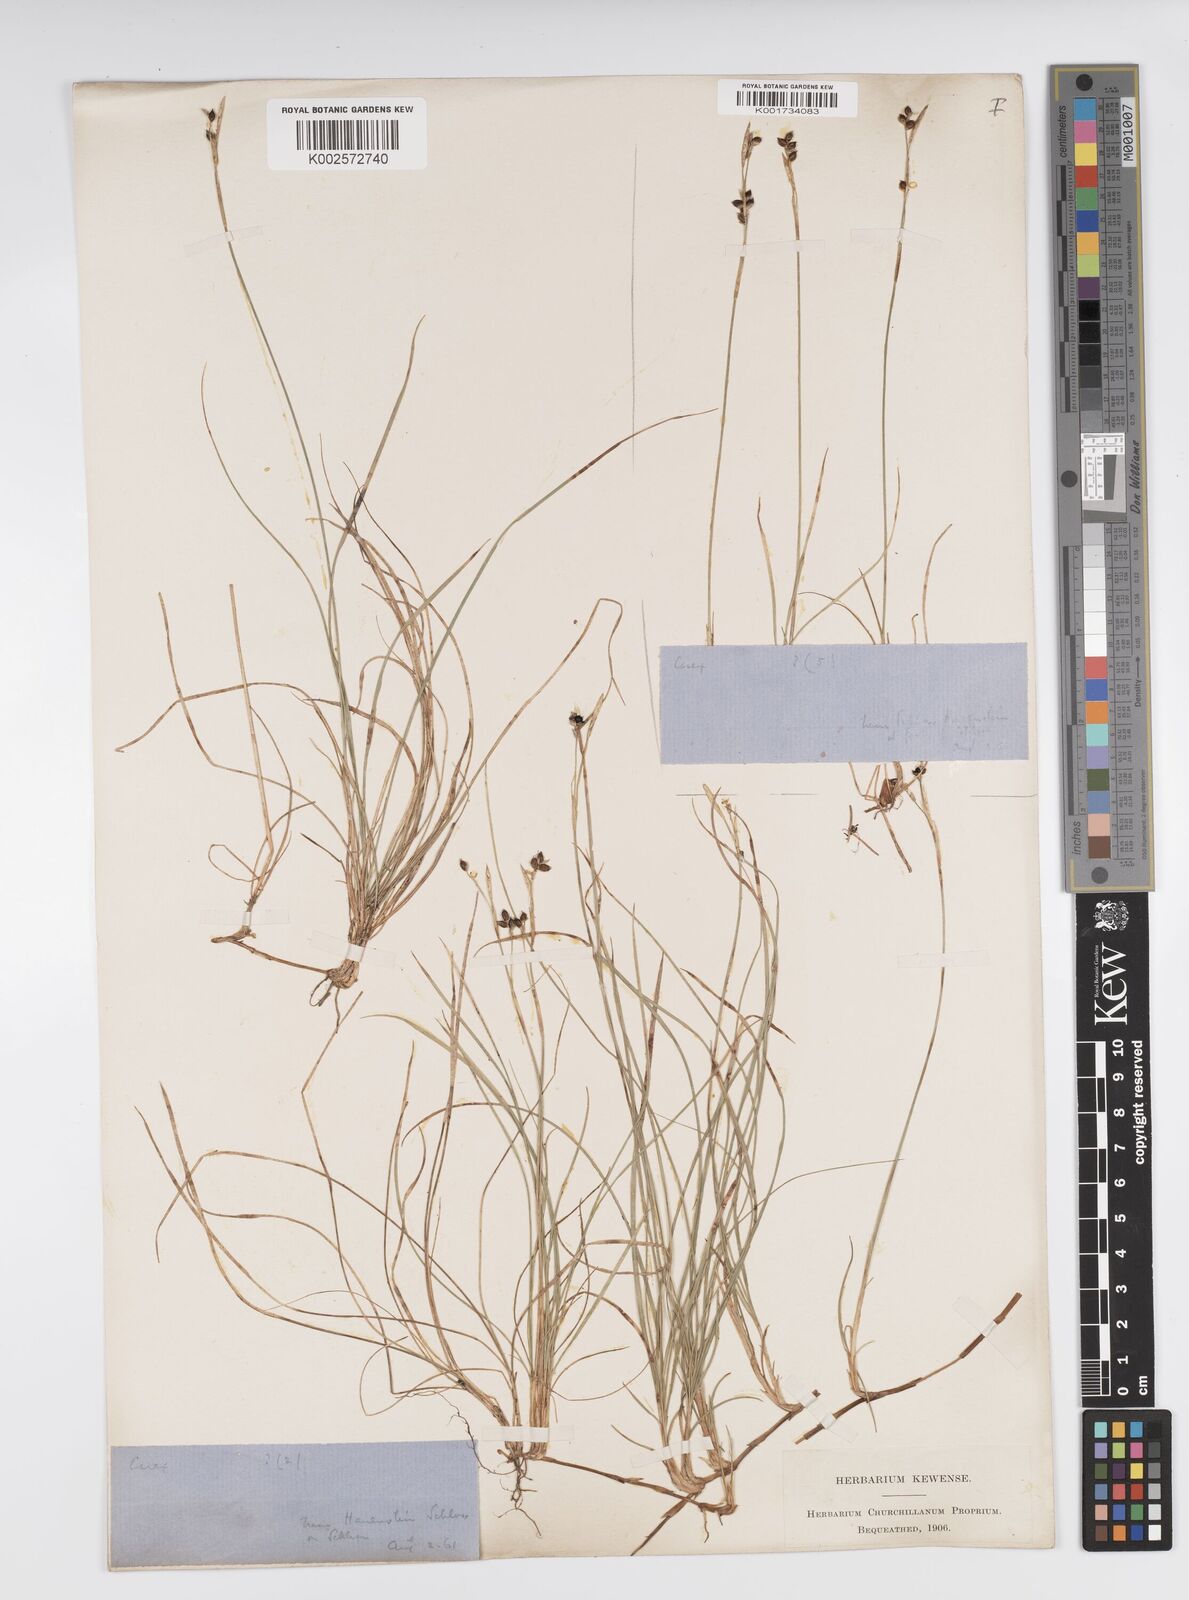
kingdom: Plantae
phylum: Tracheophyta
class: Liliopsida
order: Poales
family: Cyperaceae
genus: Carex
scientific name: Carex alba
